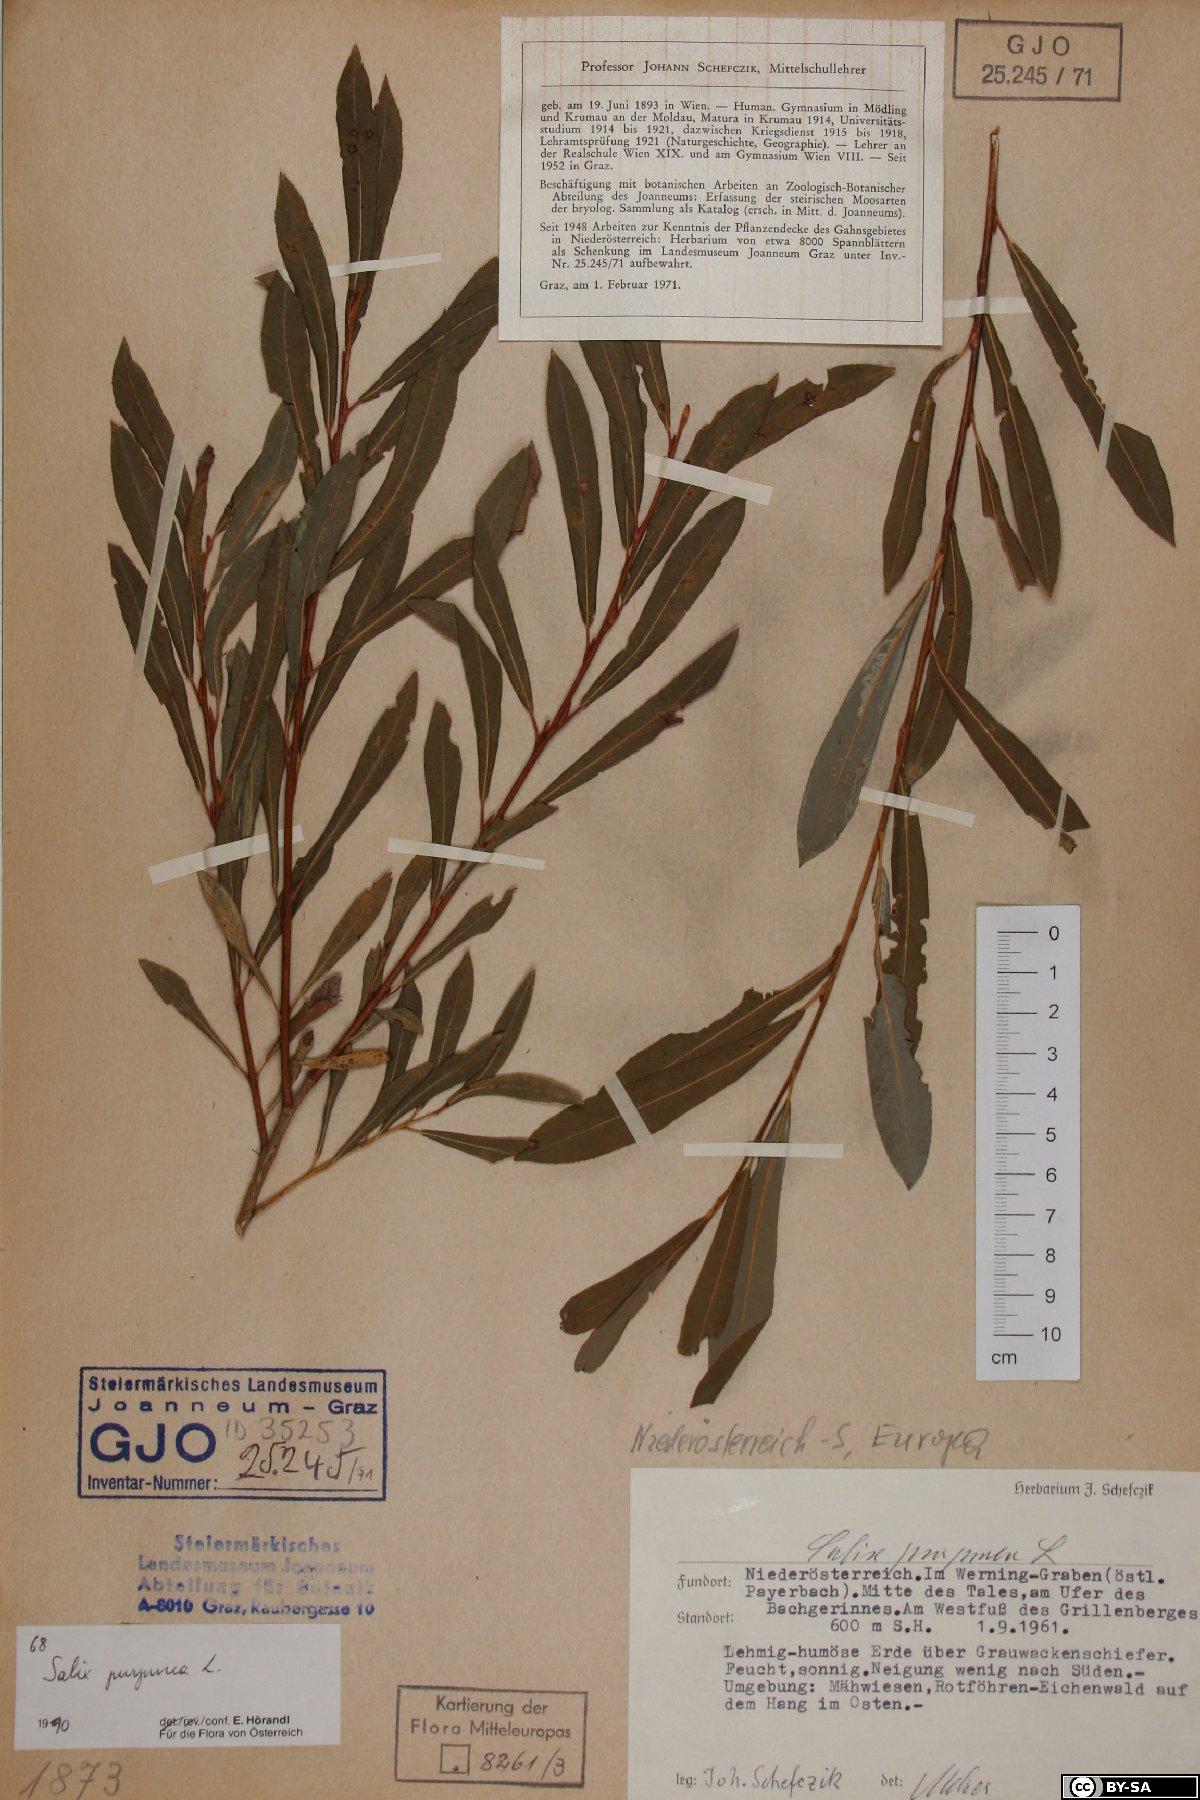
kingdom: Plantae
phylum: Tracheophyta
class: Magnoliopsida
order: Malpighiales
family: Salicaceae
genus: Salix
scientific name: Salix purpurea
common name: Purple willow
